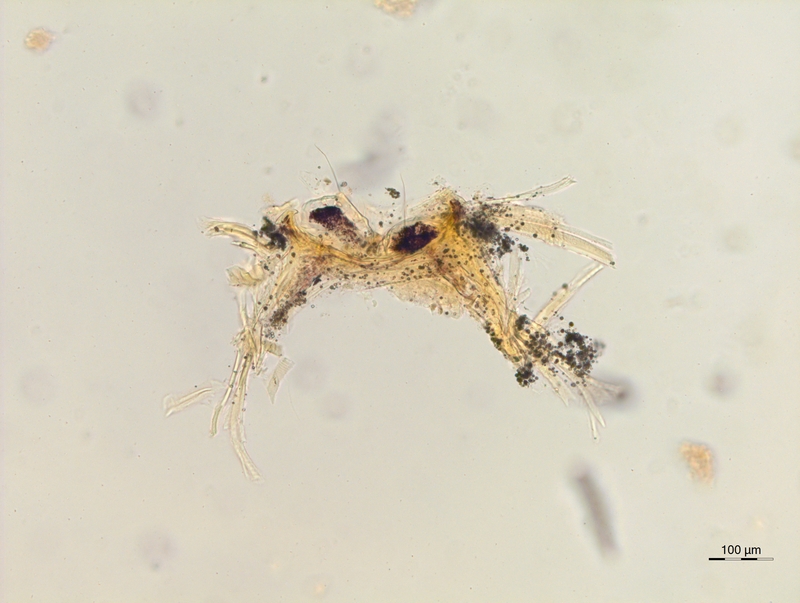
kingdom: Animalia
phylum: Arthropoda
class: Diplopoda
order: Chordeumatida
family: Craspedosomatidae
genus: Rothenbuehleria
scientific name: Rothenbuehleria tirolense
